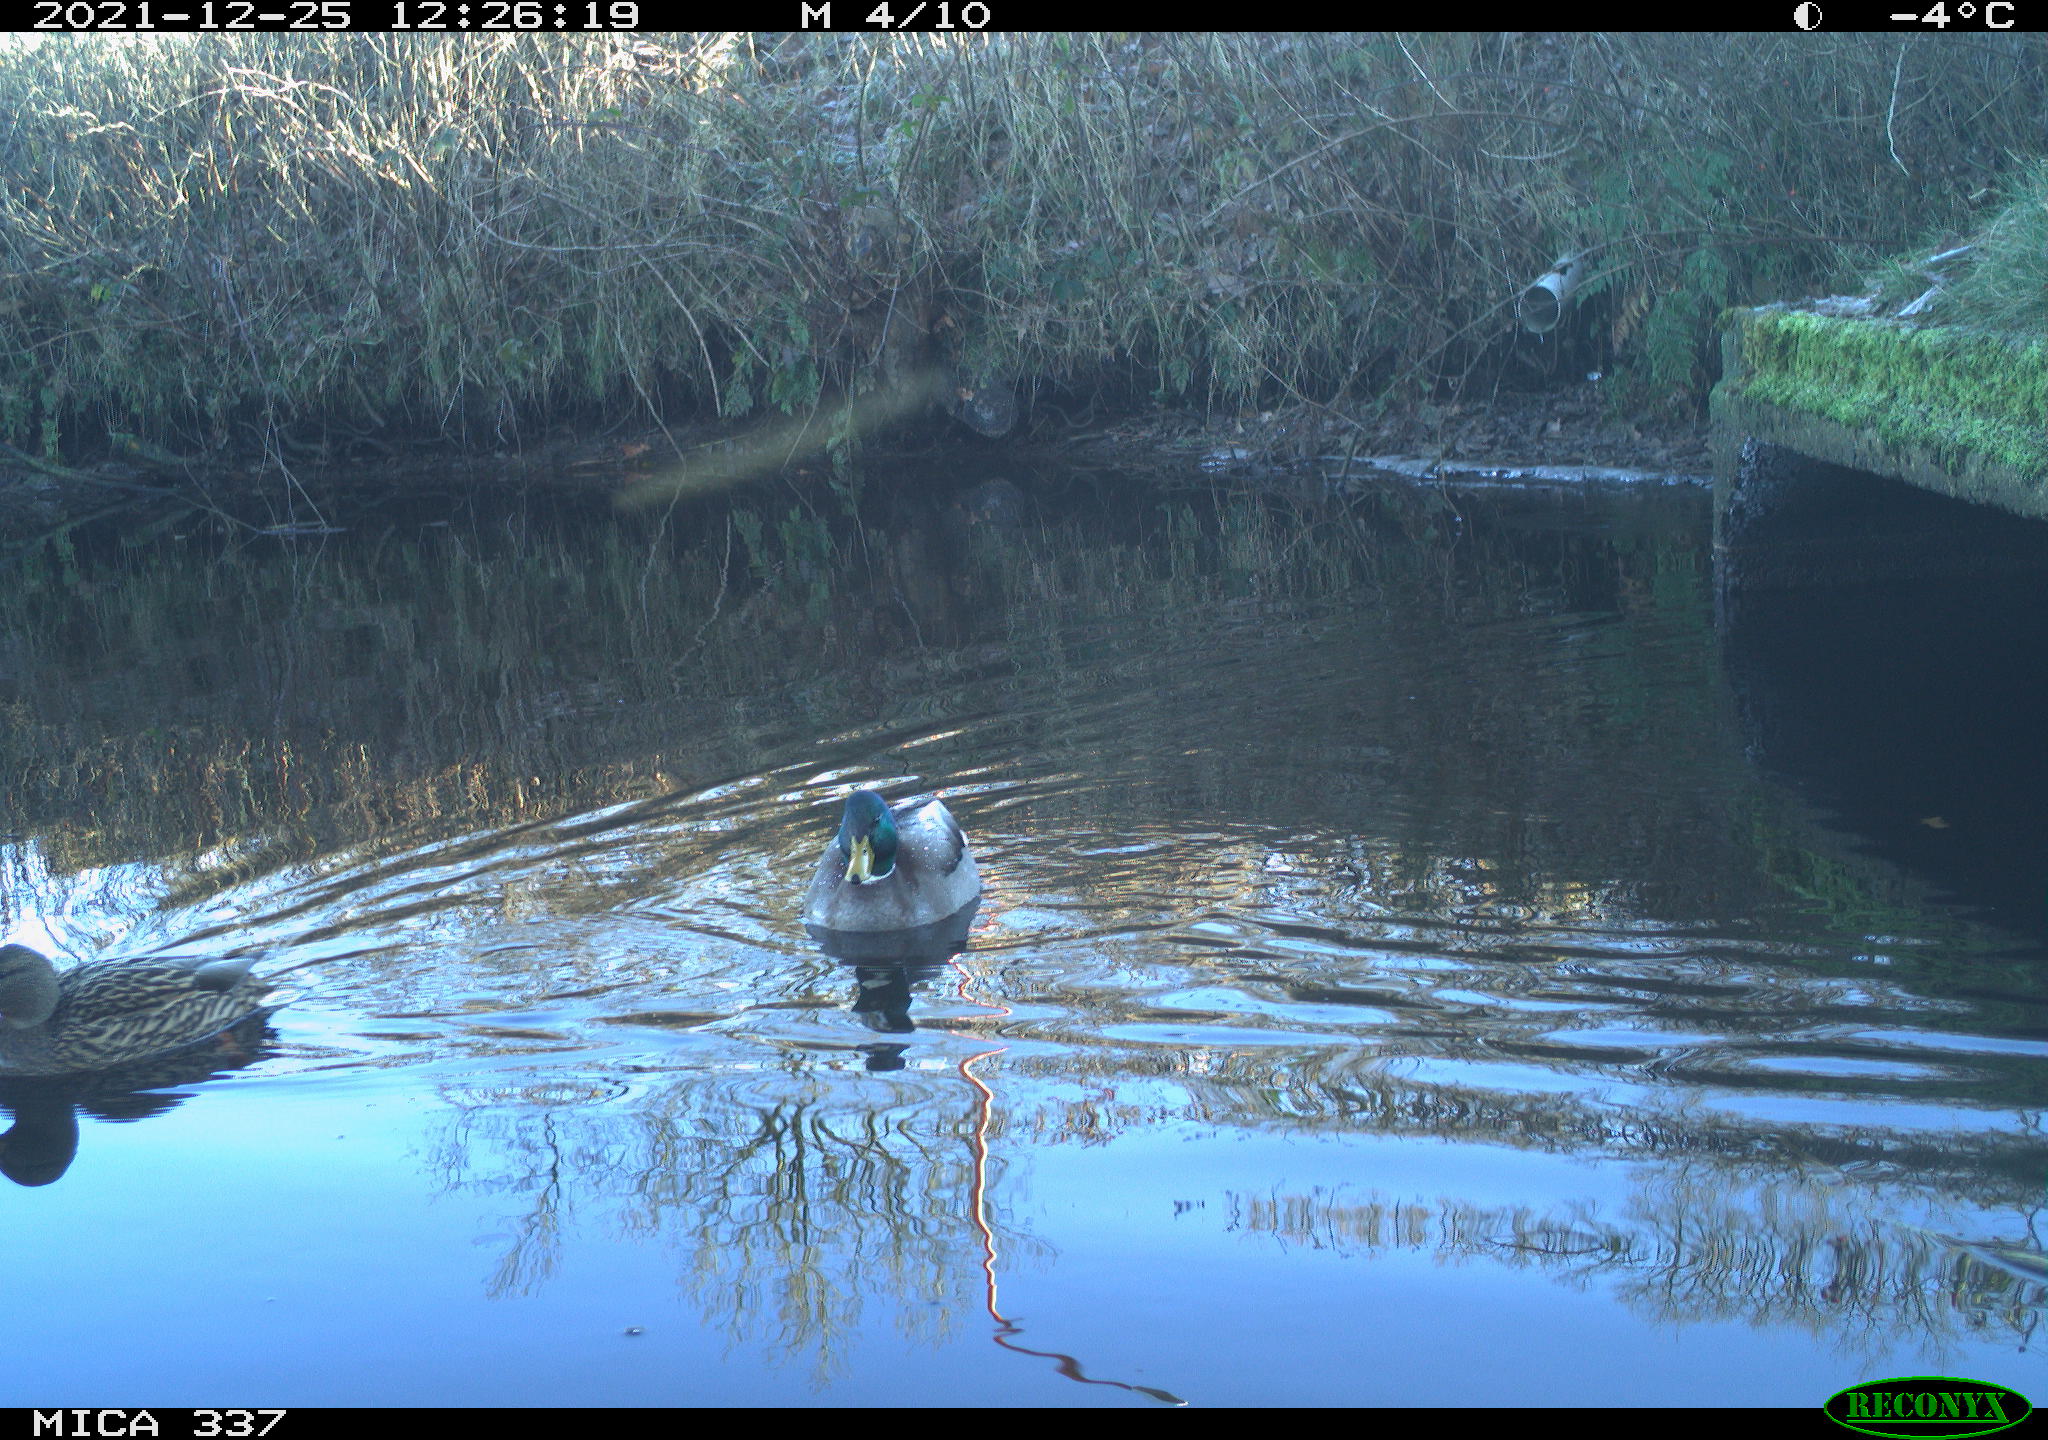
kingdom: Animalia
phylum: Chordata
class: Aves
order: Anseriformes
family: Anatidae
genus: Anas
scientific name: Anas platyrhynchos
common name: Mallard
